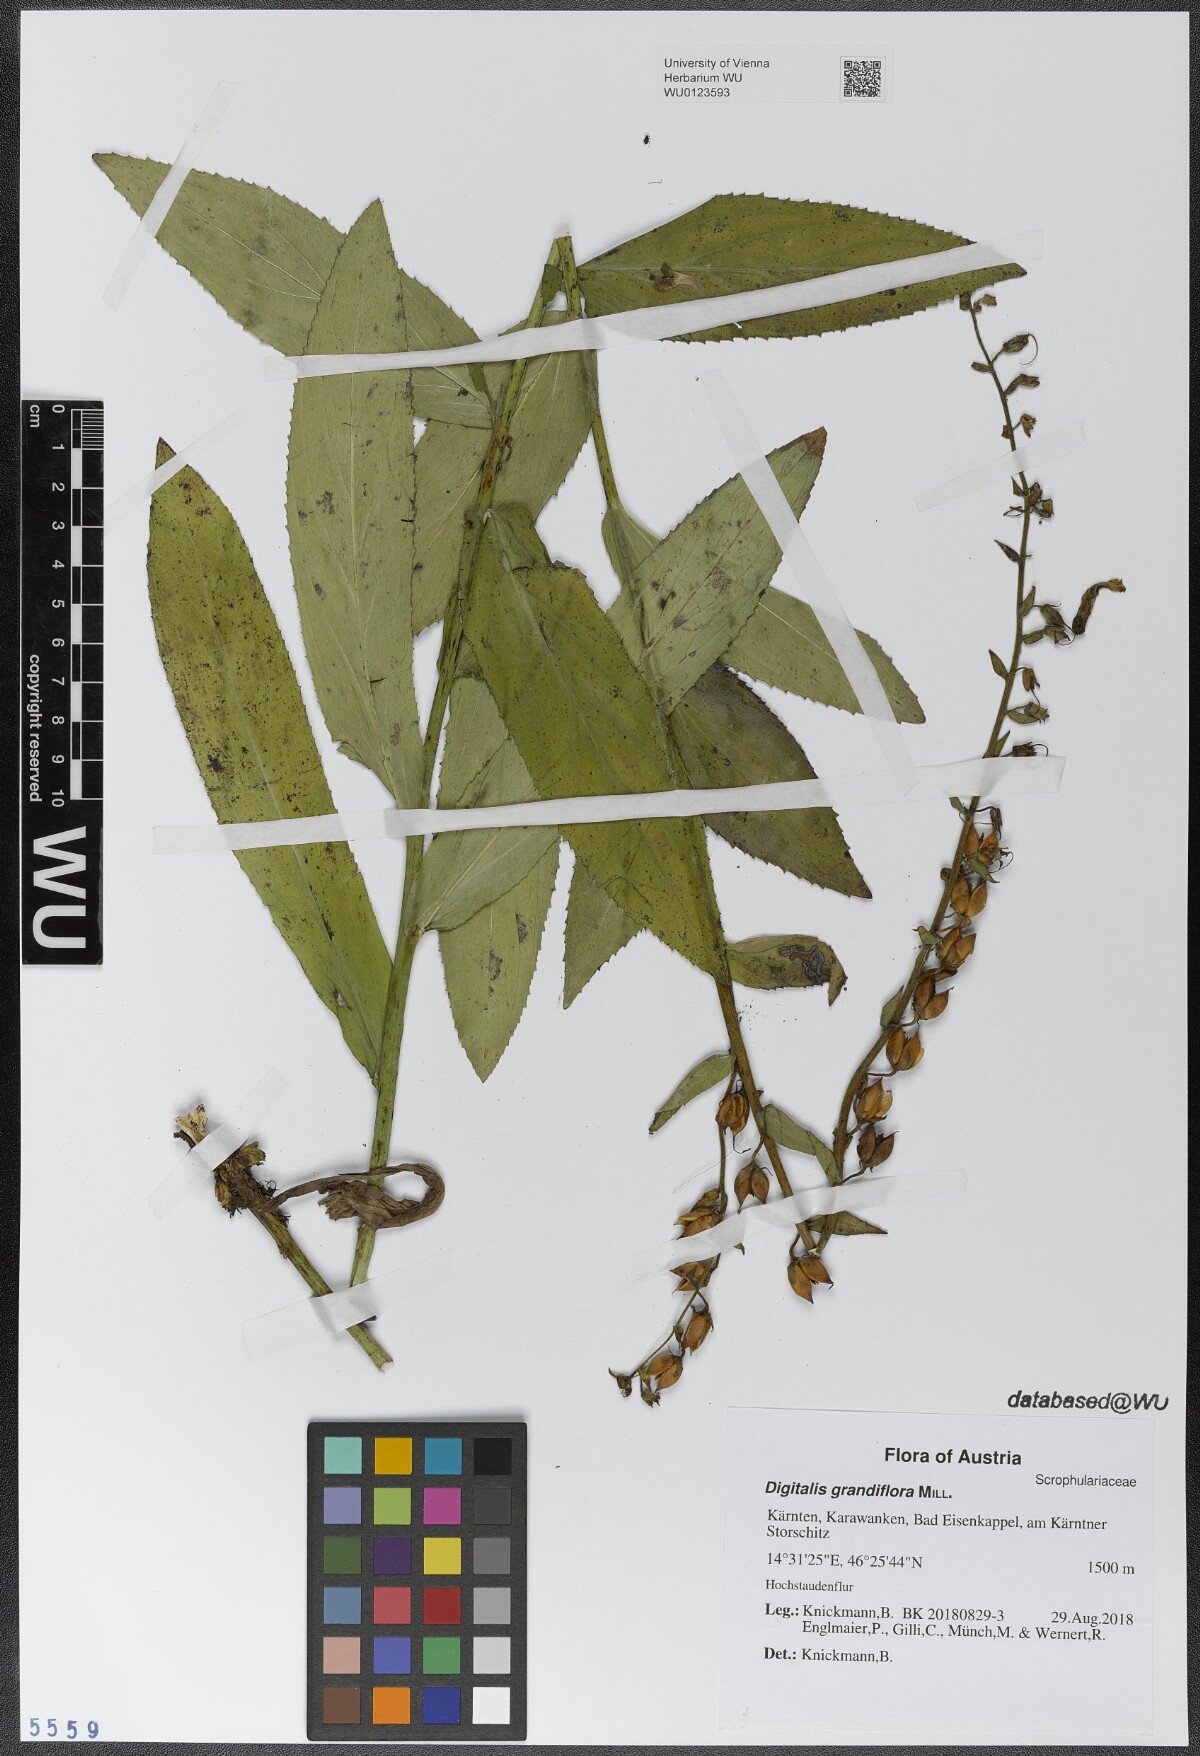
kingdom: Plantae
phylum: Tracheophyta
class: Magnoliopsida
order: Lamiales
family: Plantaginaceae
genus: Digitalis
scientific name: Digitalis grandiflora
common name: Yellow foxglove
